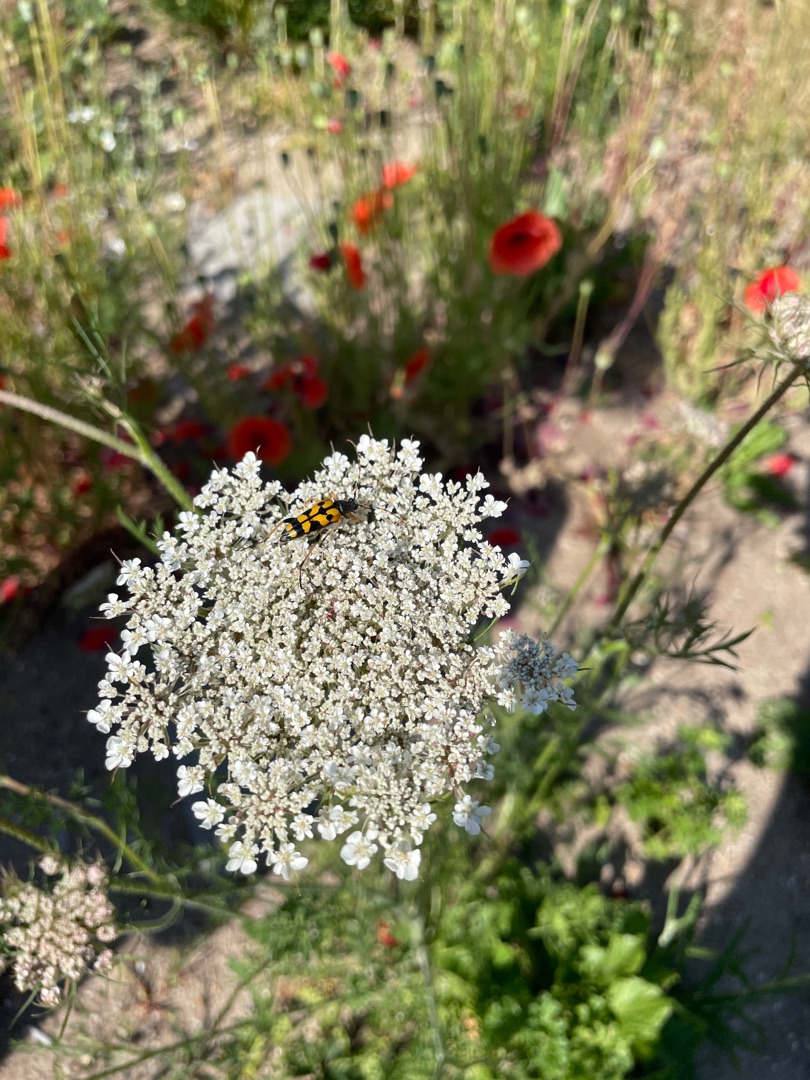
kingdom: Animalia
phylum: Arthropoda
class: Insecta
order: Coleoptera
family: Cerambycidae
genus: Rutpela
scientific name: Rutpela maculata
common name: Sydlig blomsterbuk
